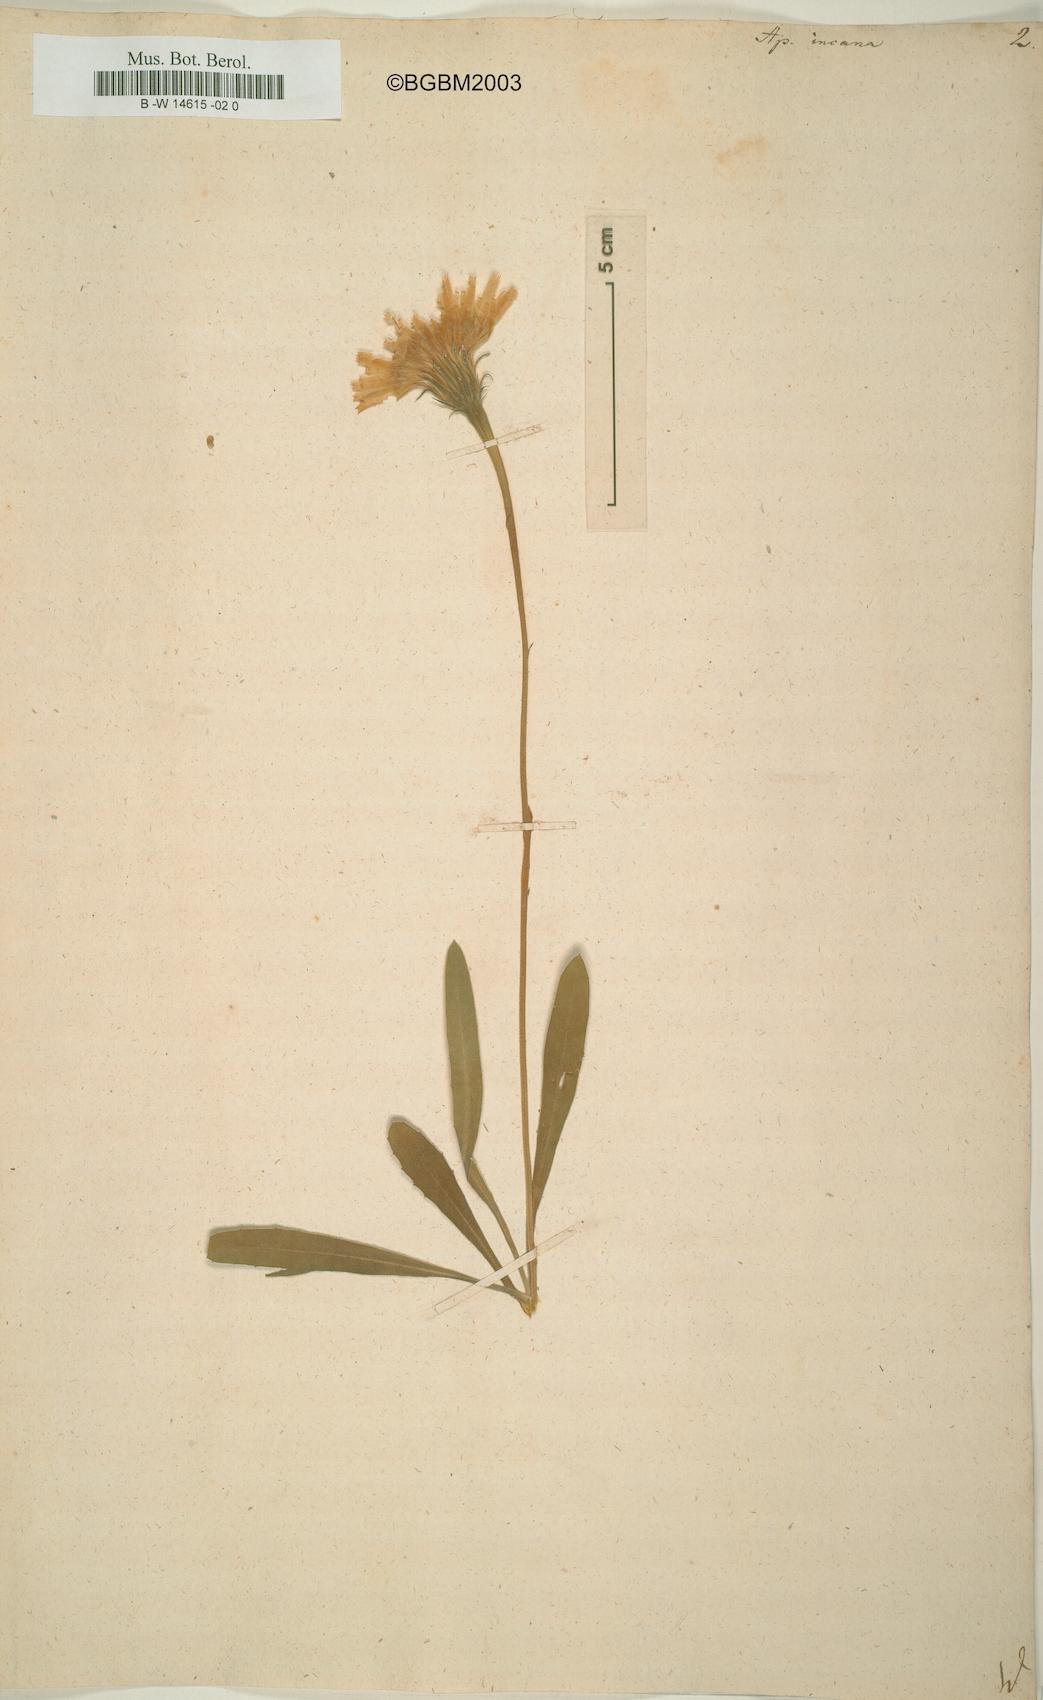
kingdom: Plantae
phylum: Tracheophyta
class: Magnoliopsida
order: Asterales
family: Asteraceae
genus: Leontodon
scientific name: Leontodon
